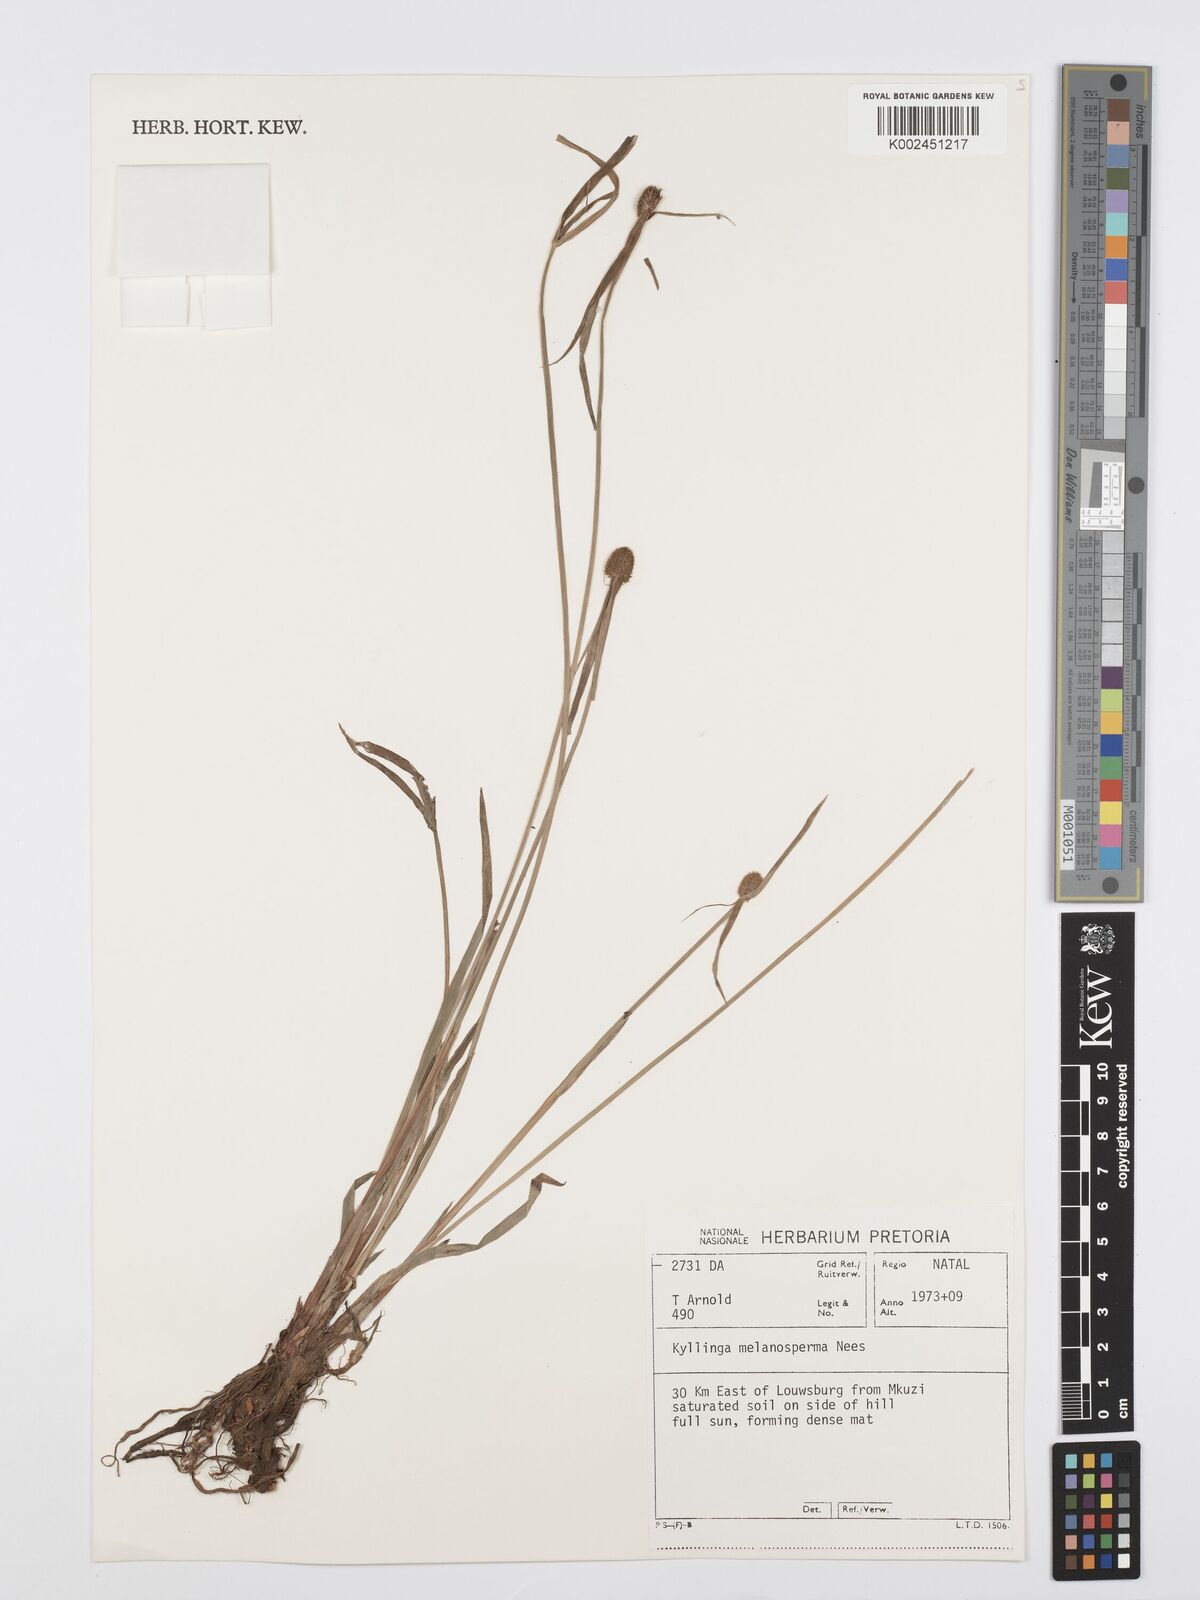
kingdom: Plantae
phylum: Tracheophyta
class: Liliopsida
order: Poales
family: Cyperaceae
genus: Cyperus
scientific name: Cyperus melanospermus
